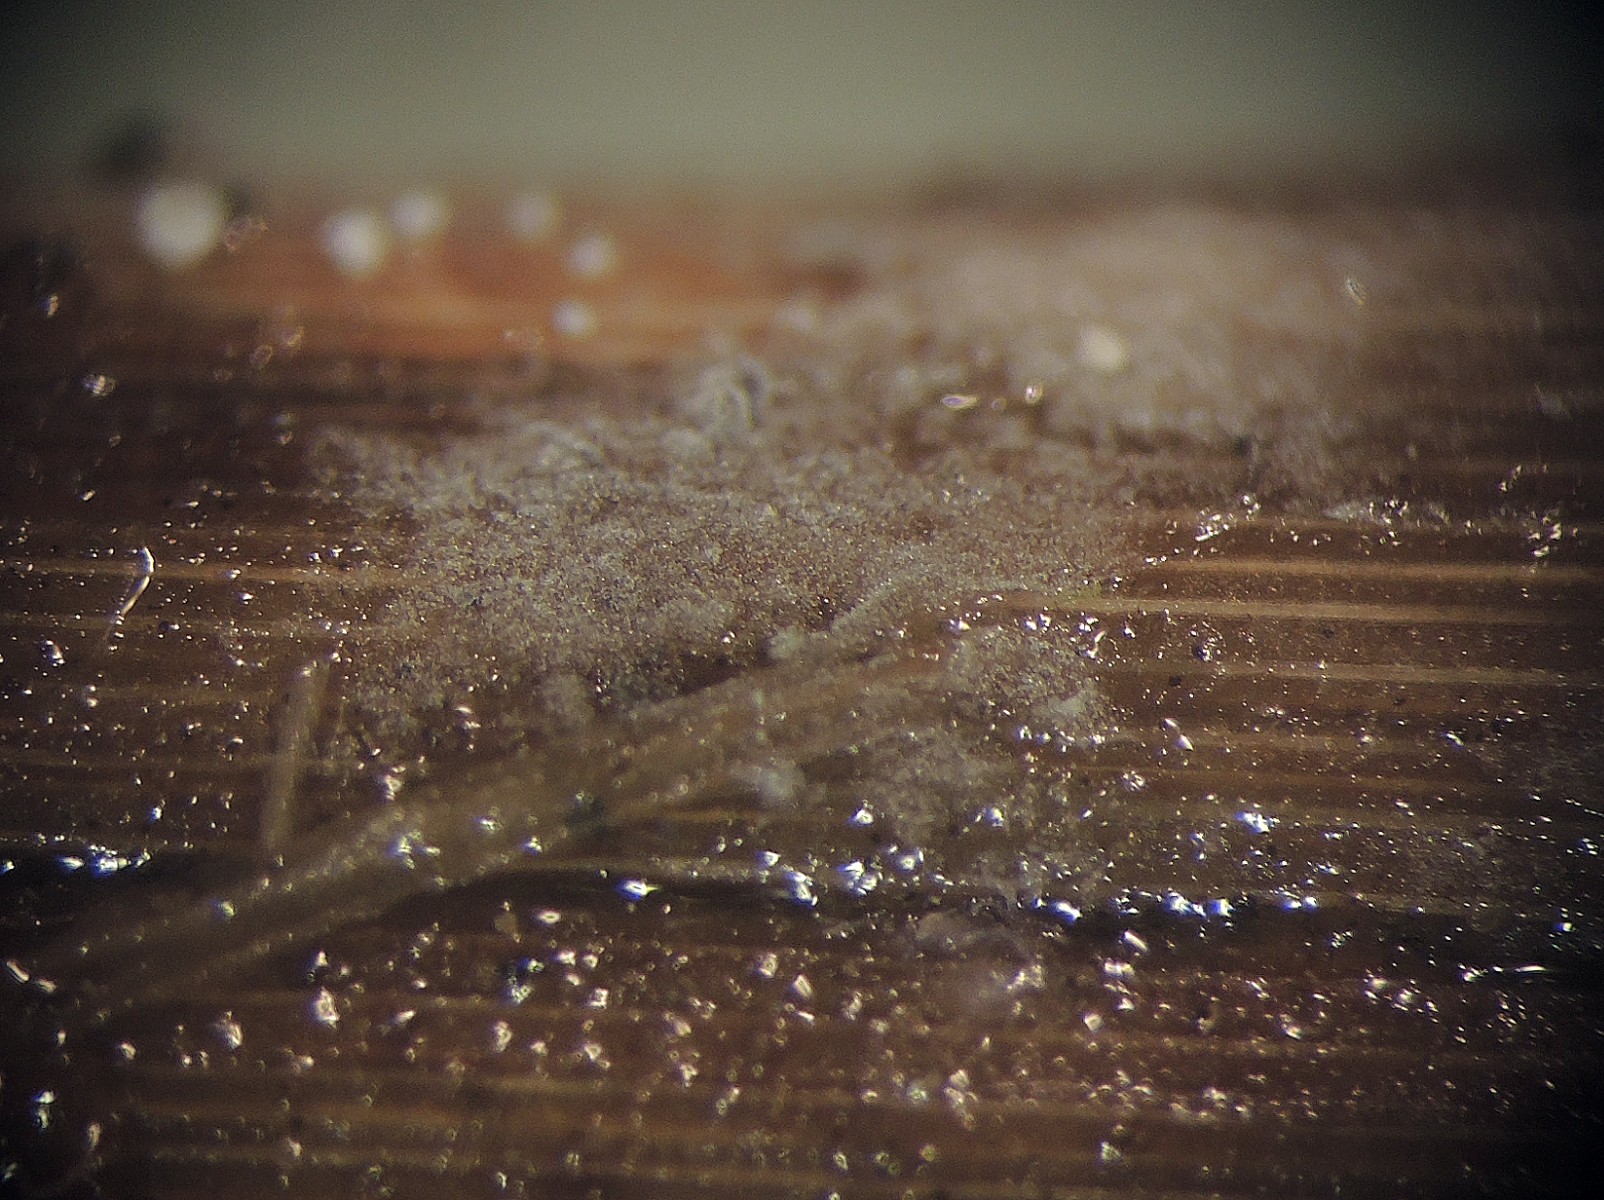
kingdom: Fungi
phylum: Basidiomycota
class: Agaricomycetes
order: Cantharellales
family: Oliveoniaceae
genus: Oliveonia
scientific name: Oliveonia pauxilla
